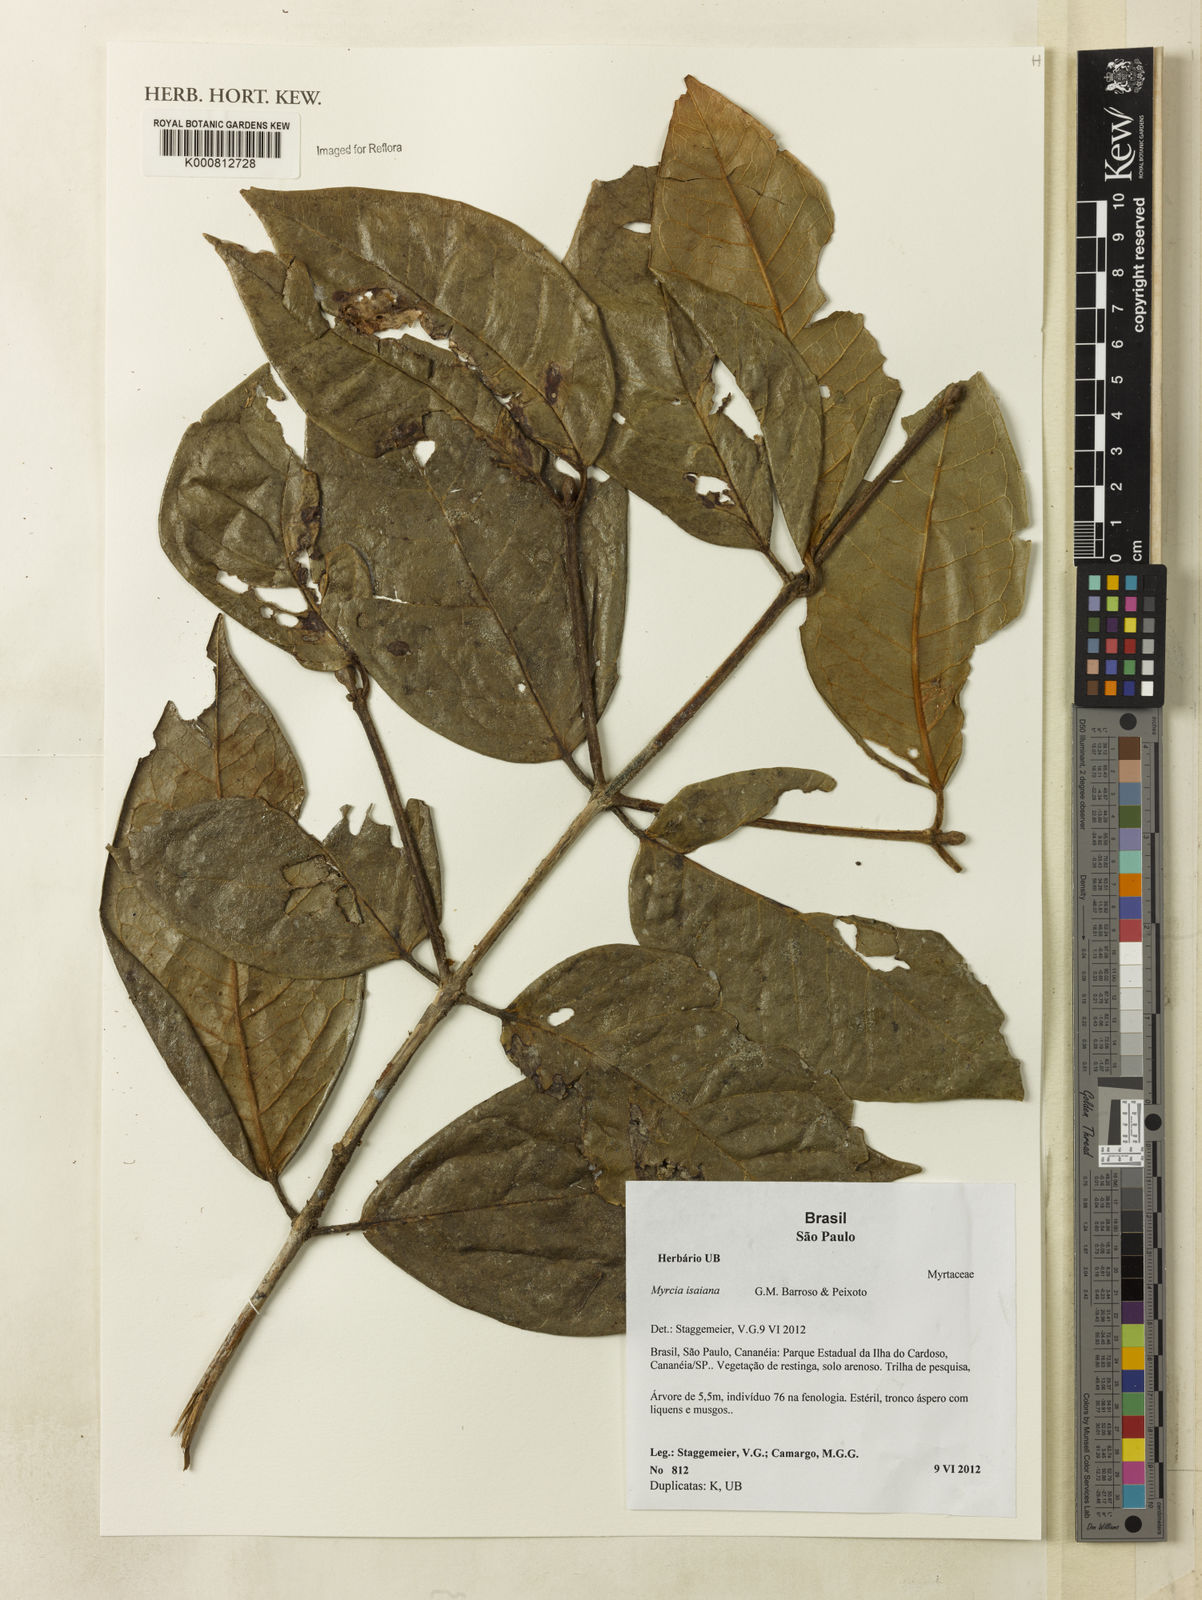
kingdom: Plantae
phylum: Tracheophyta
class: Magnoliopsida
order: Myrtales
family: Myrtaceae
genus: Myrcia
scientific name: Myrcia isaiana
